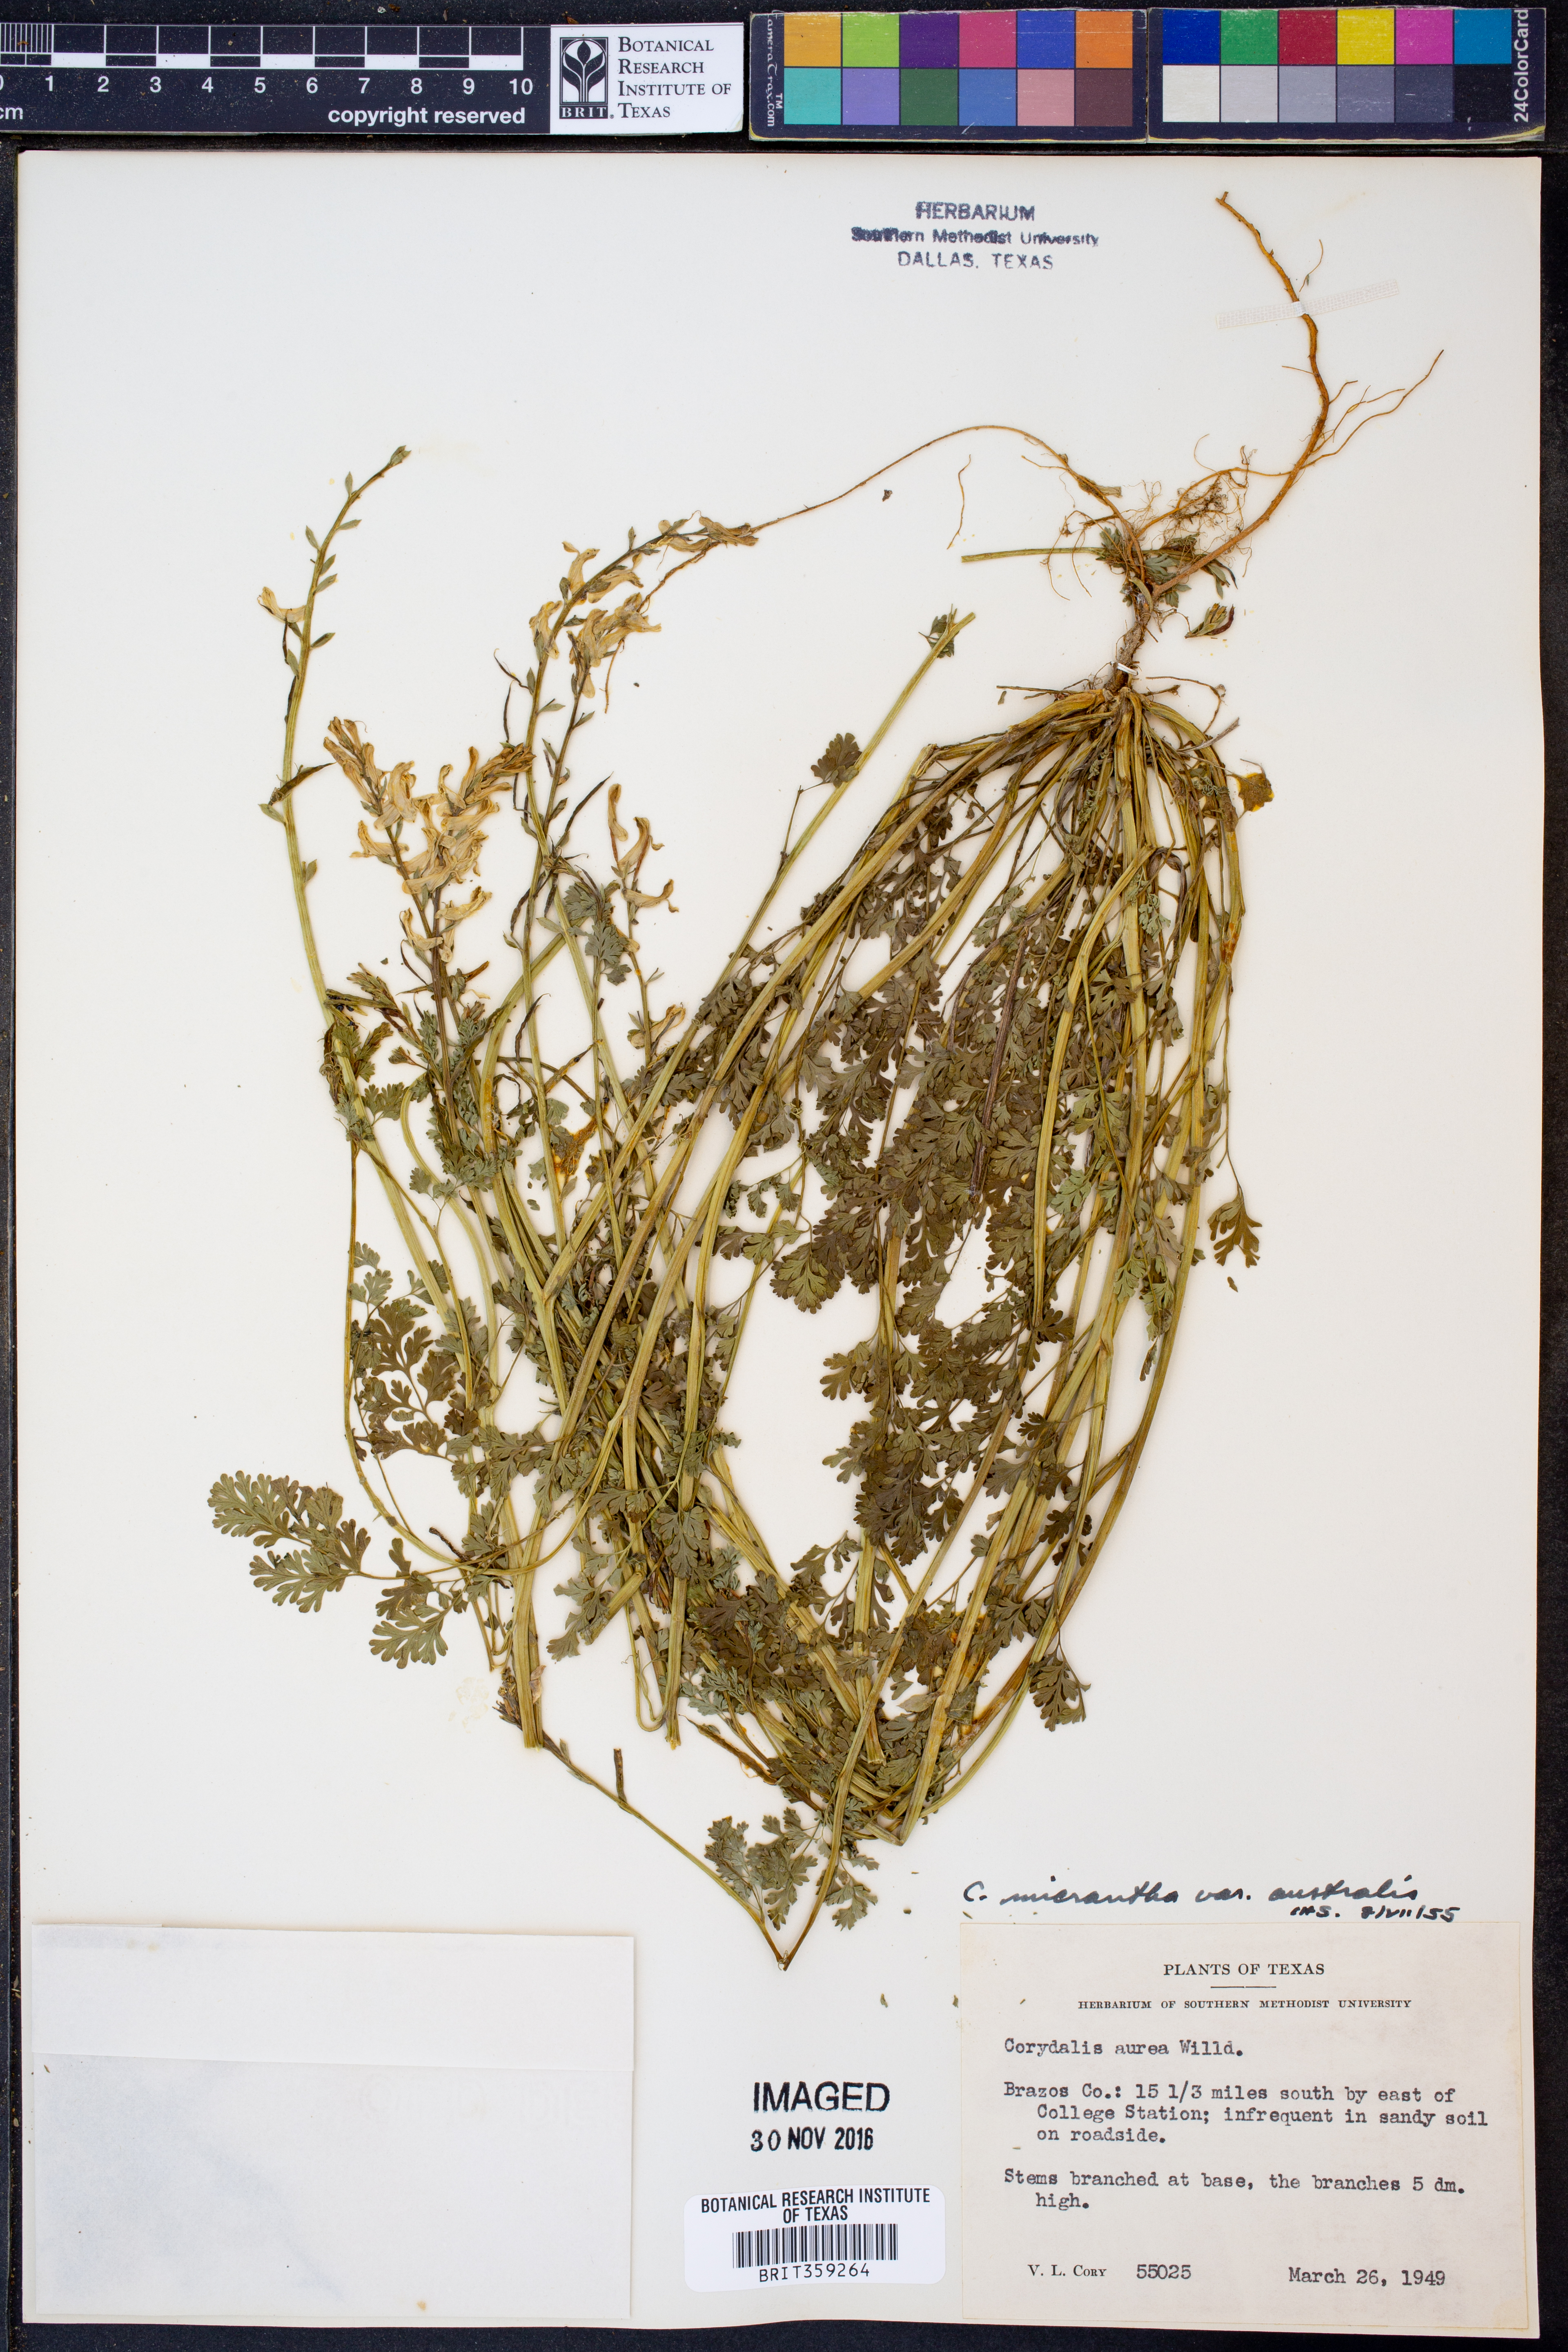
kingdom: Plantae
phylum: Tracheophyta
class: Magnoliopsida
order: Ranunculales
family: Papaveraceae
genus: Corydalis
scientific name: Corydalis micrantha
